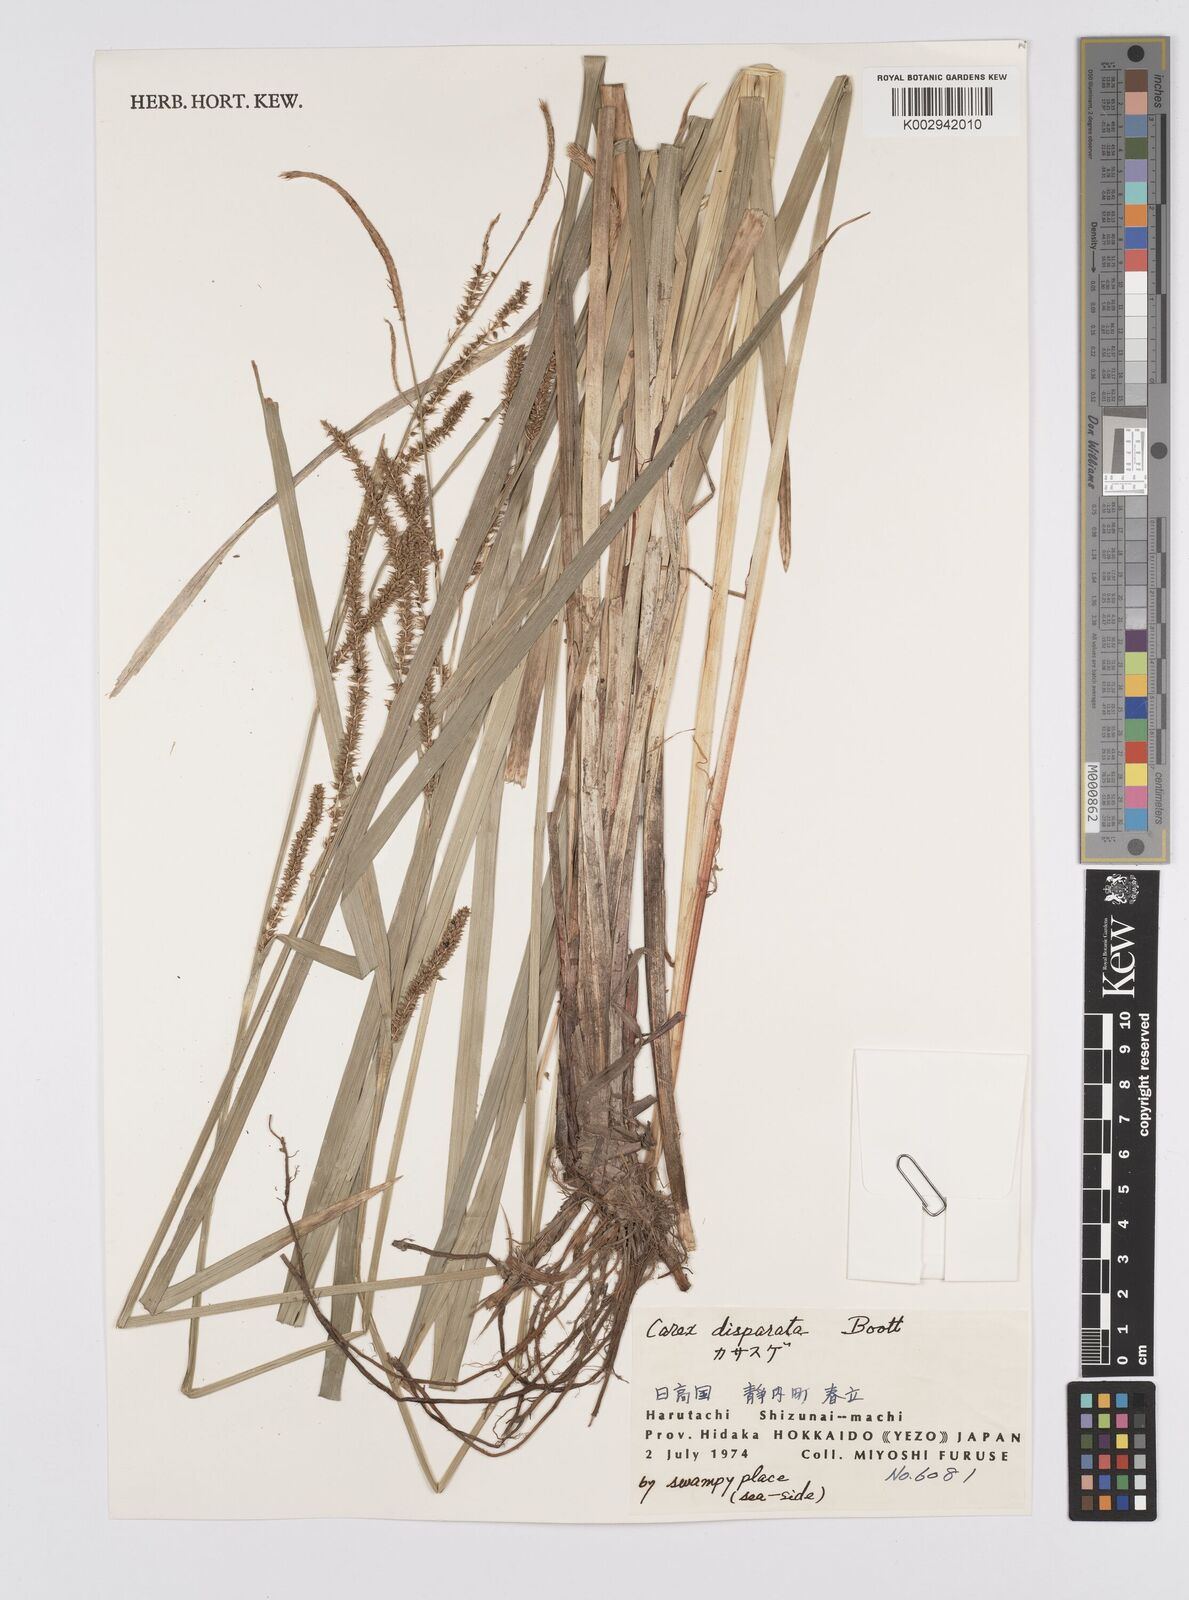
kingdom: Plantae
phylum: Tracheophyta
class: Liliopsida
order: Poales
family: Cyperaceae
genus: Carex
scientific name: Carex dispalata
